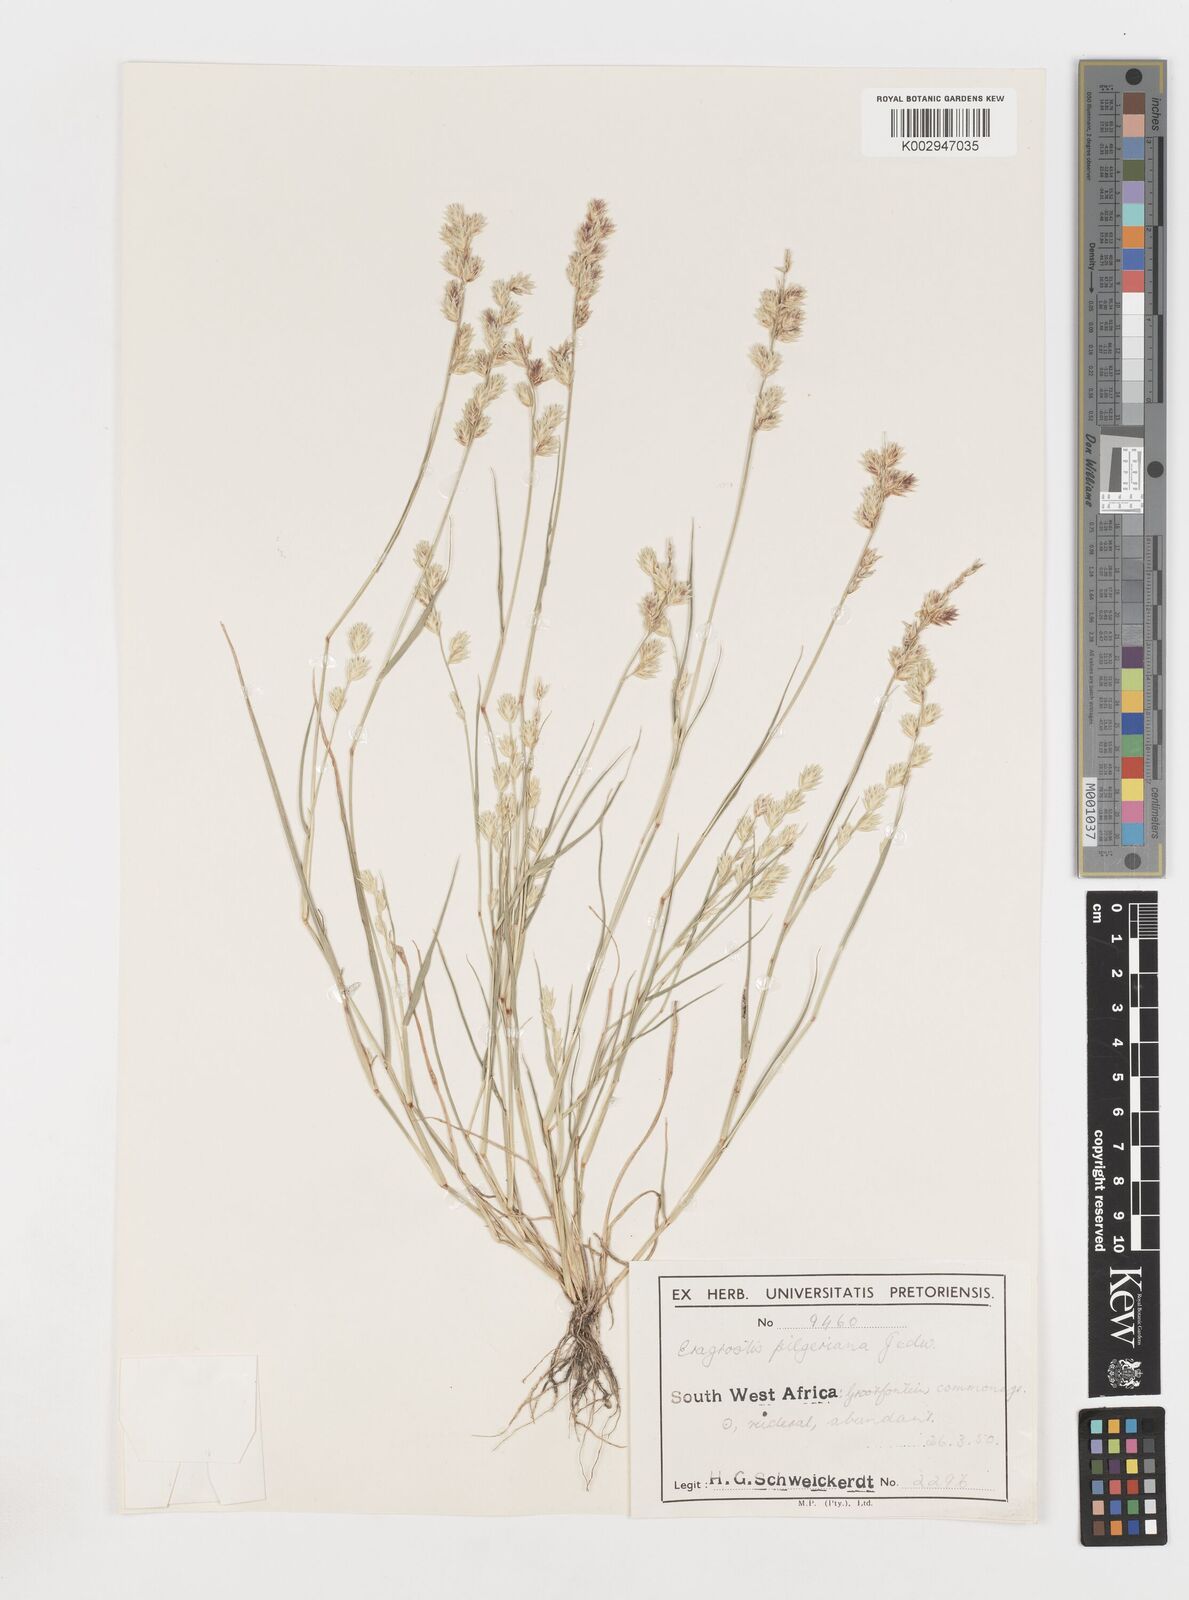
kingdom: Plantae
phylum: Tracheophyta
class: Liliopsida
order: Poales
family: Poaceae
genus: Eragrostis
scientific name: Eragrostis pilgeriana
